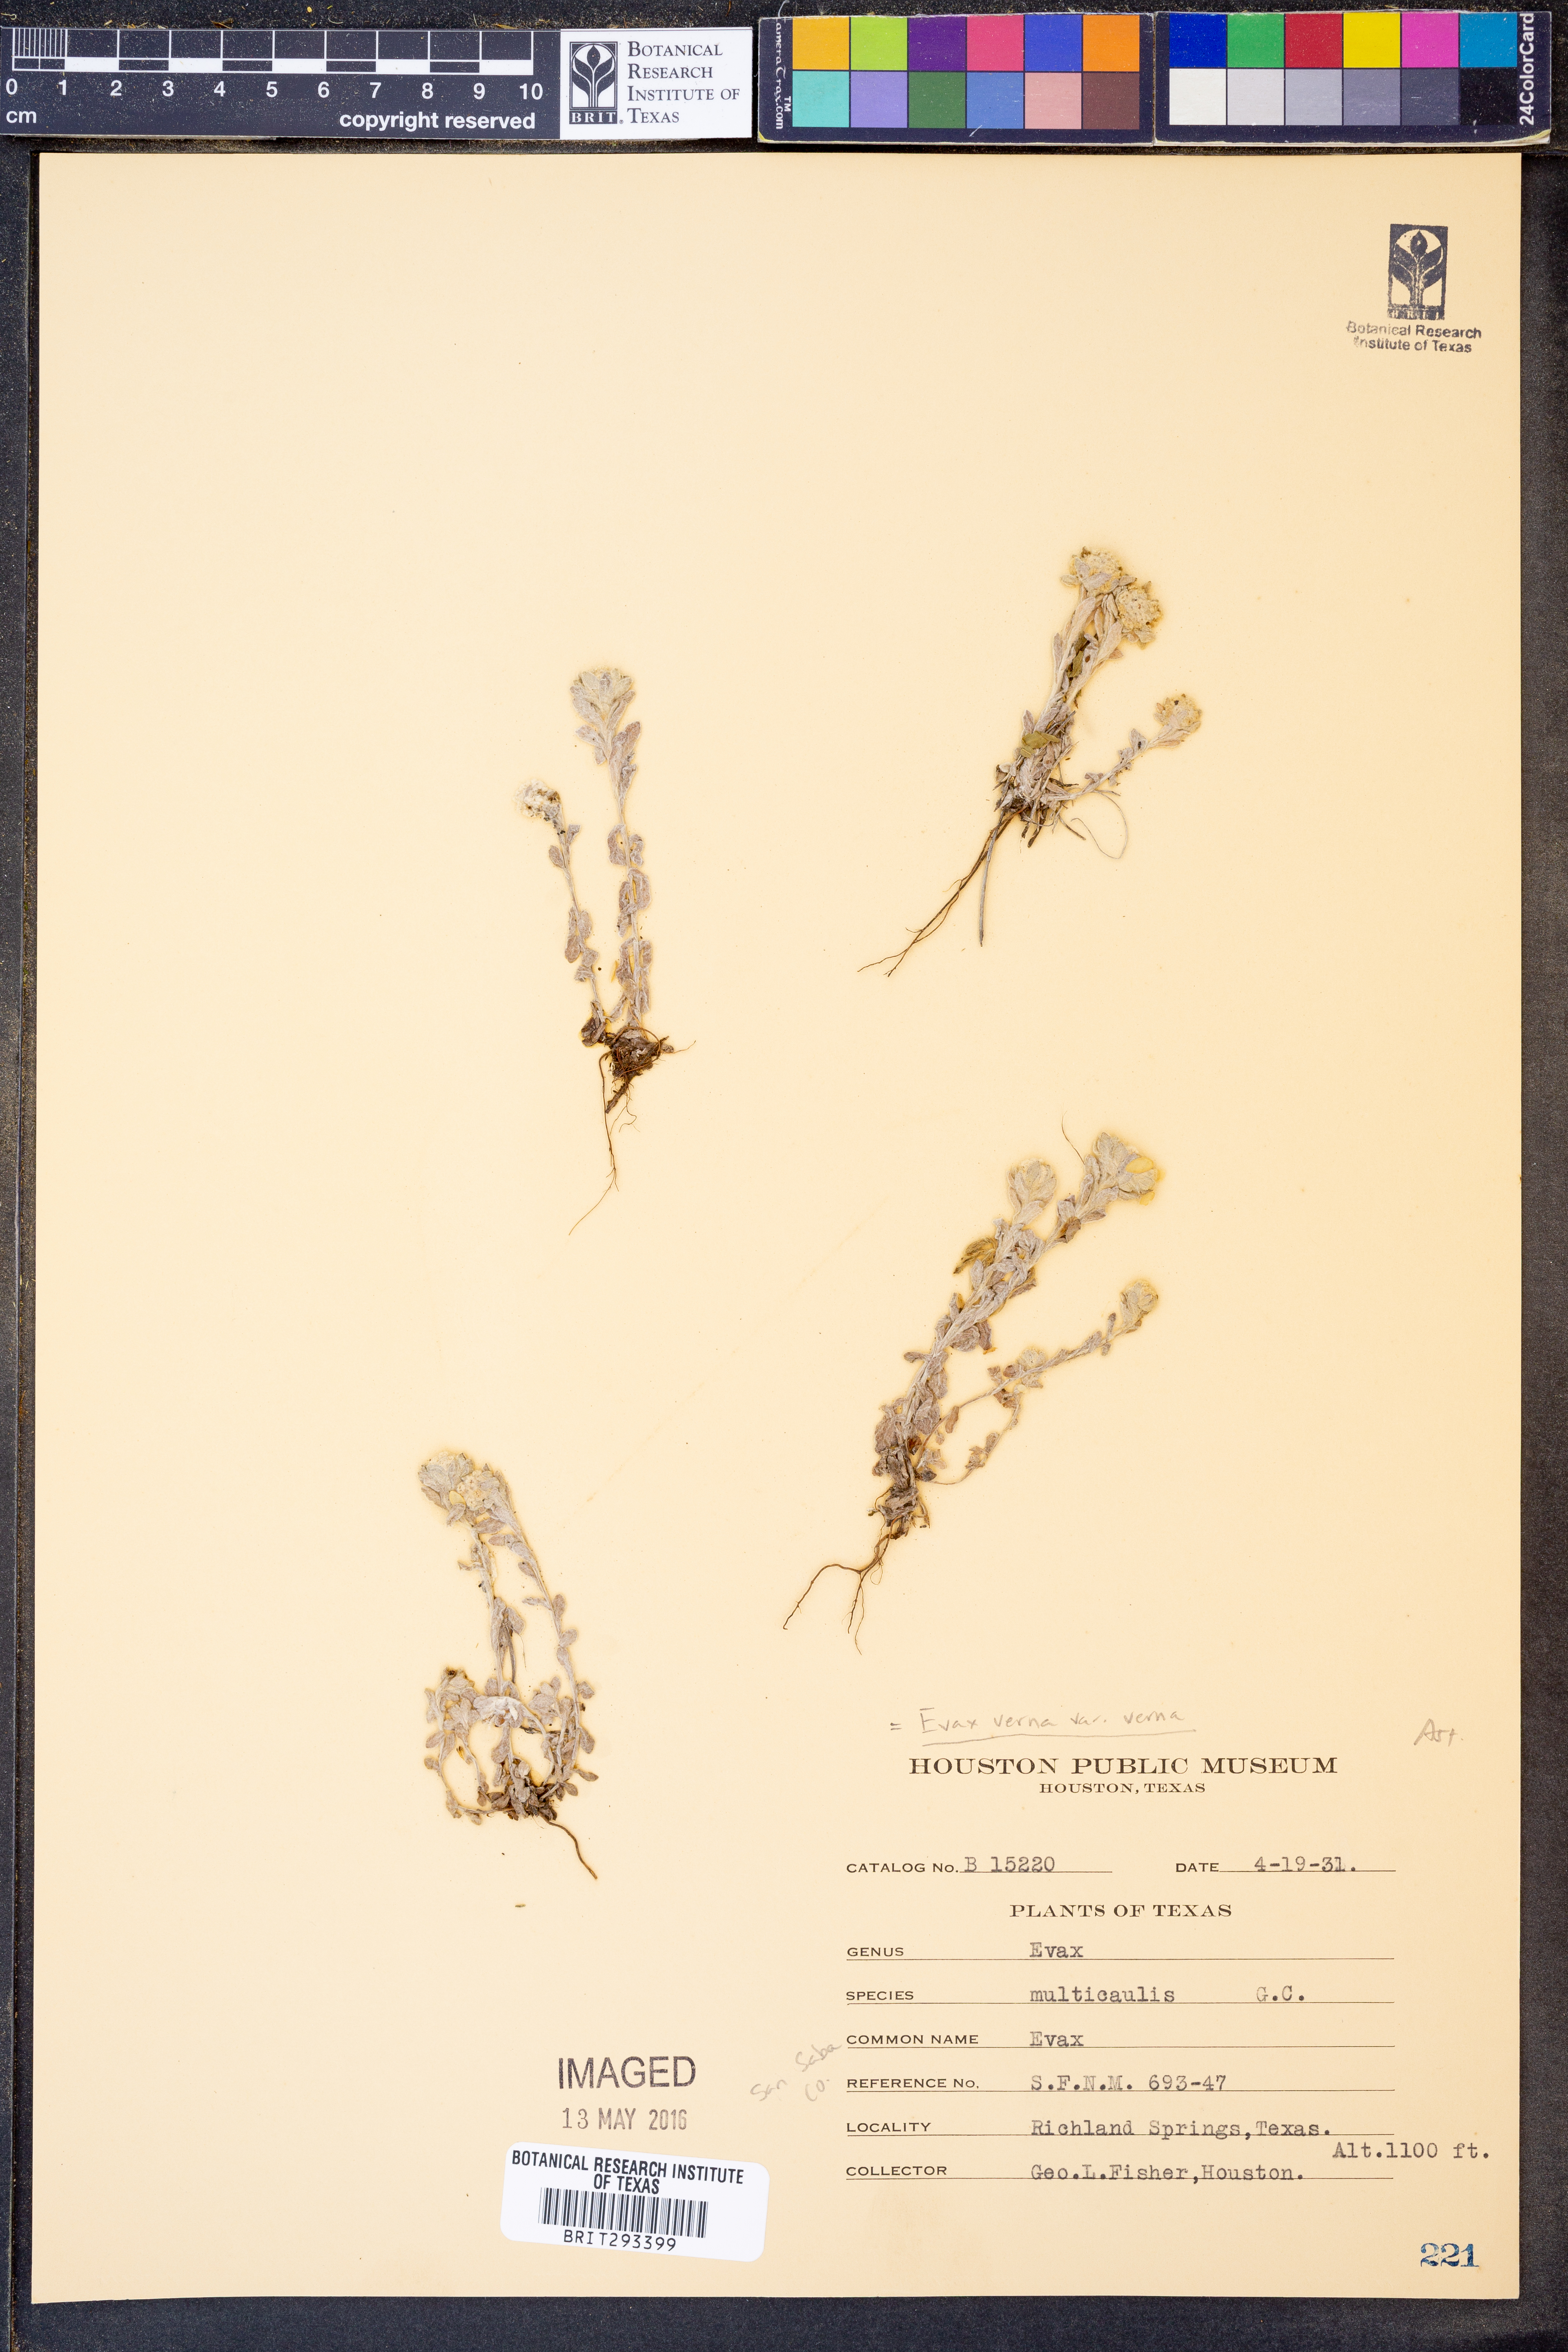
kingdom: Plantae
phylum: Tracheophyta
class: Magnoliopsida
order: Asterales
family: Asteraceae
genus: Diaperia
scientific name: Diaperia verna
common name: Many-stem rabbit-tobacco
